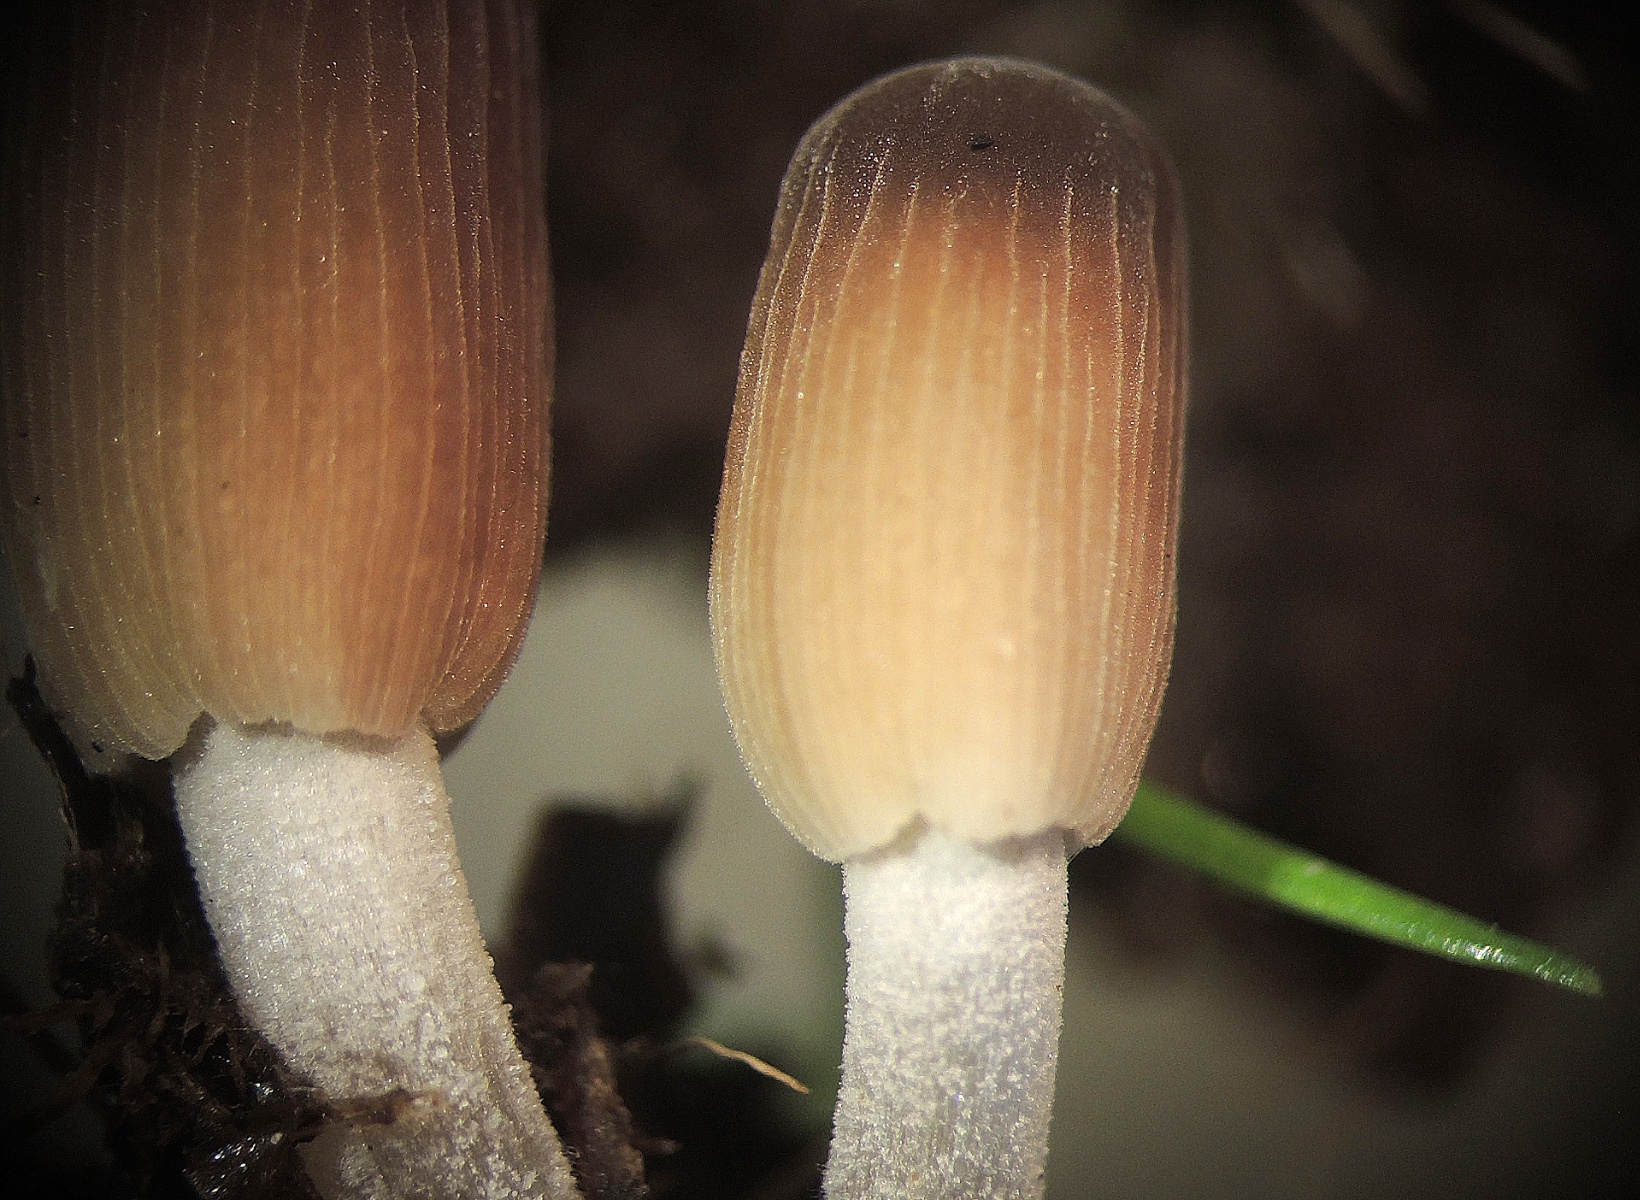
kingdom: Fungi
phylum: Basidiomycota
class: Agaricomycetes
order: Agaricales
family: Psathyrellaceae
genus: Coprinellus
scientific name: Coprinellus
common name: blækhat
